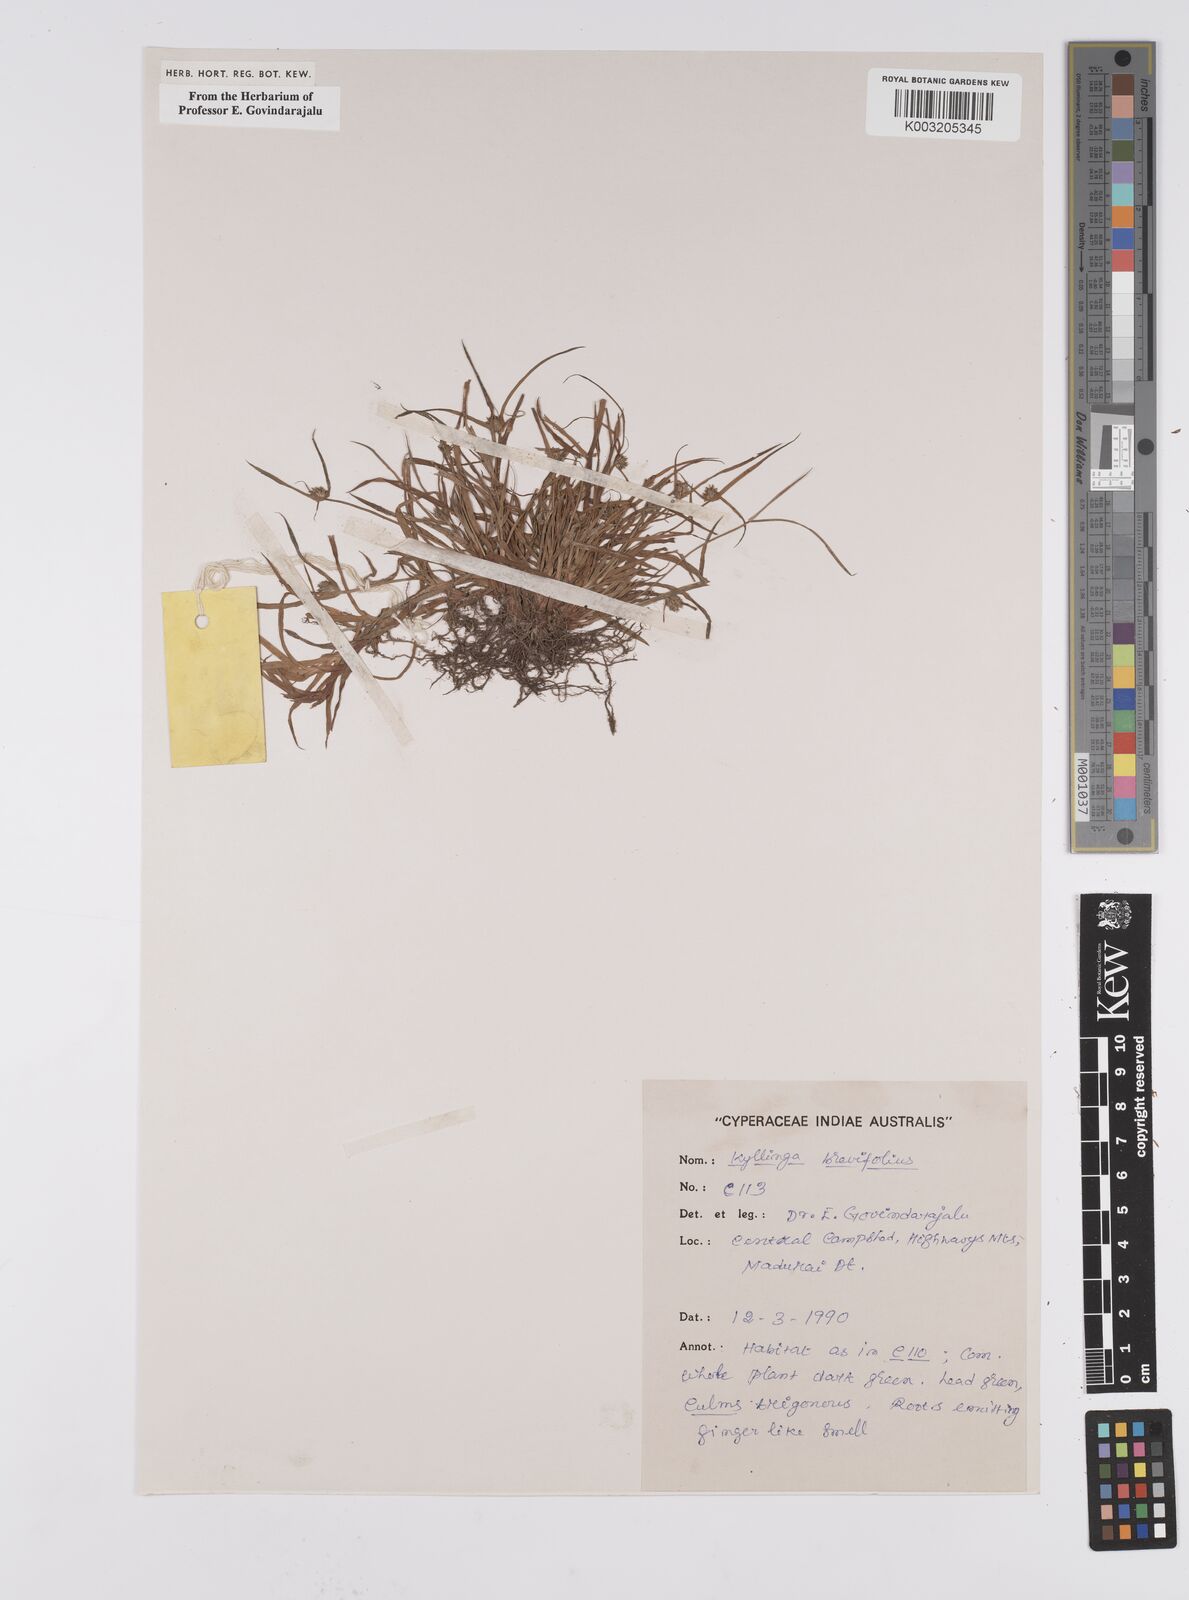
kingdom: Plantae
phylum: Tracheophyta
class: Liliopsida
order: Poales
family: Cyperaceae
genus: Cyperus
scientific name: Cyperus brevifolius
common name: Globe kyllinga
